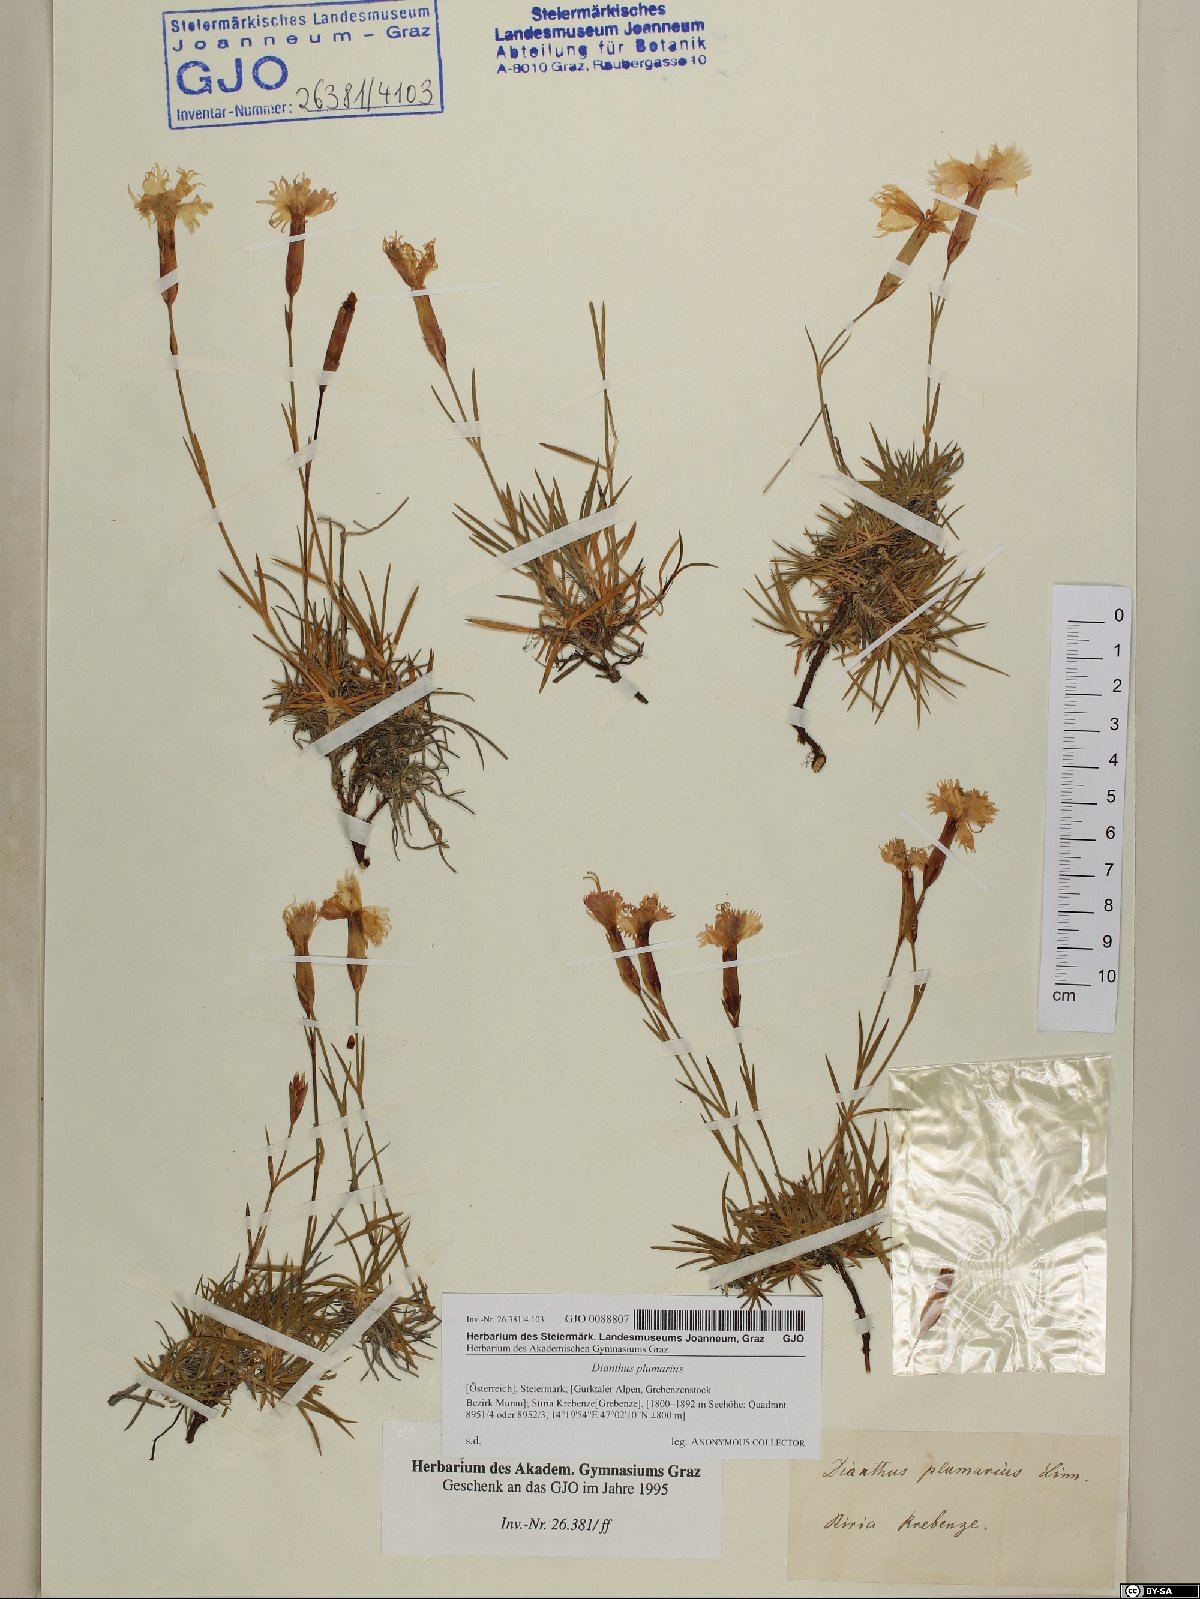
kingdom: Plantae
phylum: Tracheophyta
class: Magnoliopsida
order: Caryophyllales
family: Caryophyllaceae
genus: Dianthus
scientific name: Dianthus plumarius
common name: Pink
